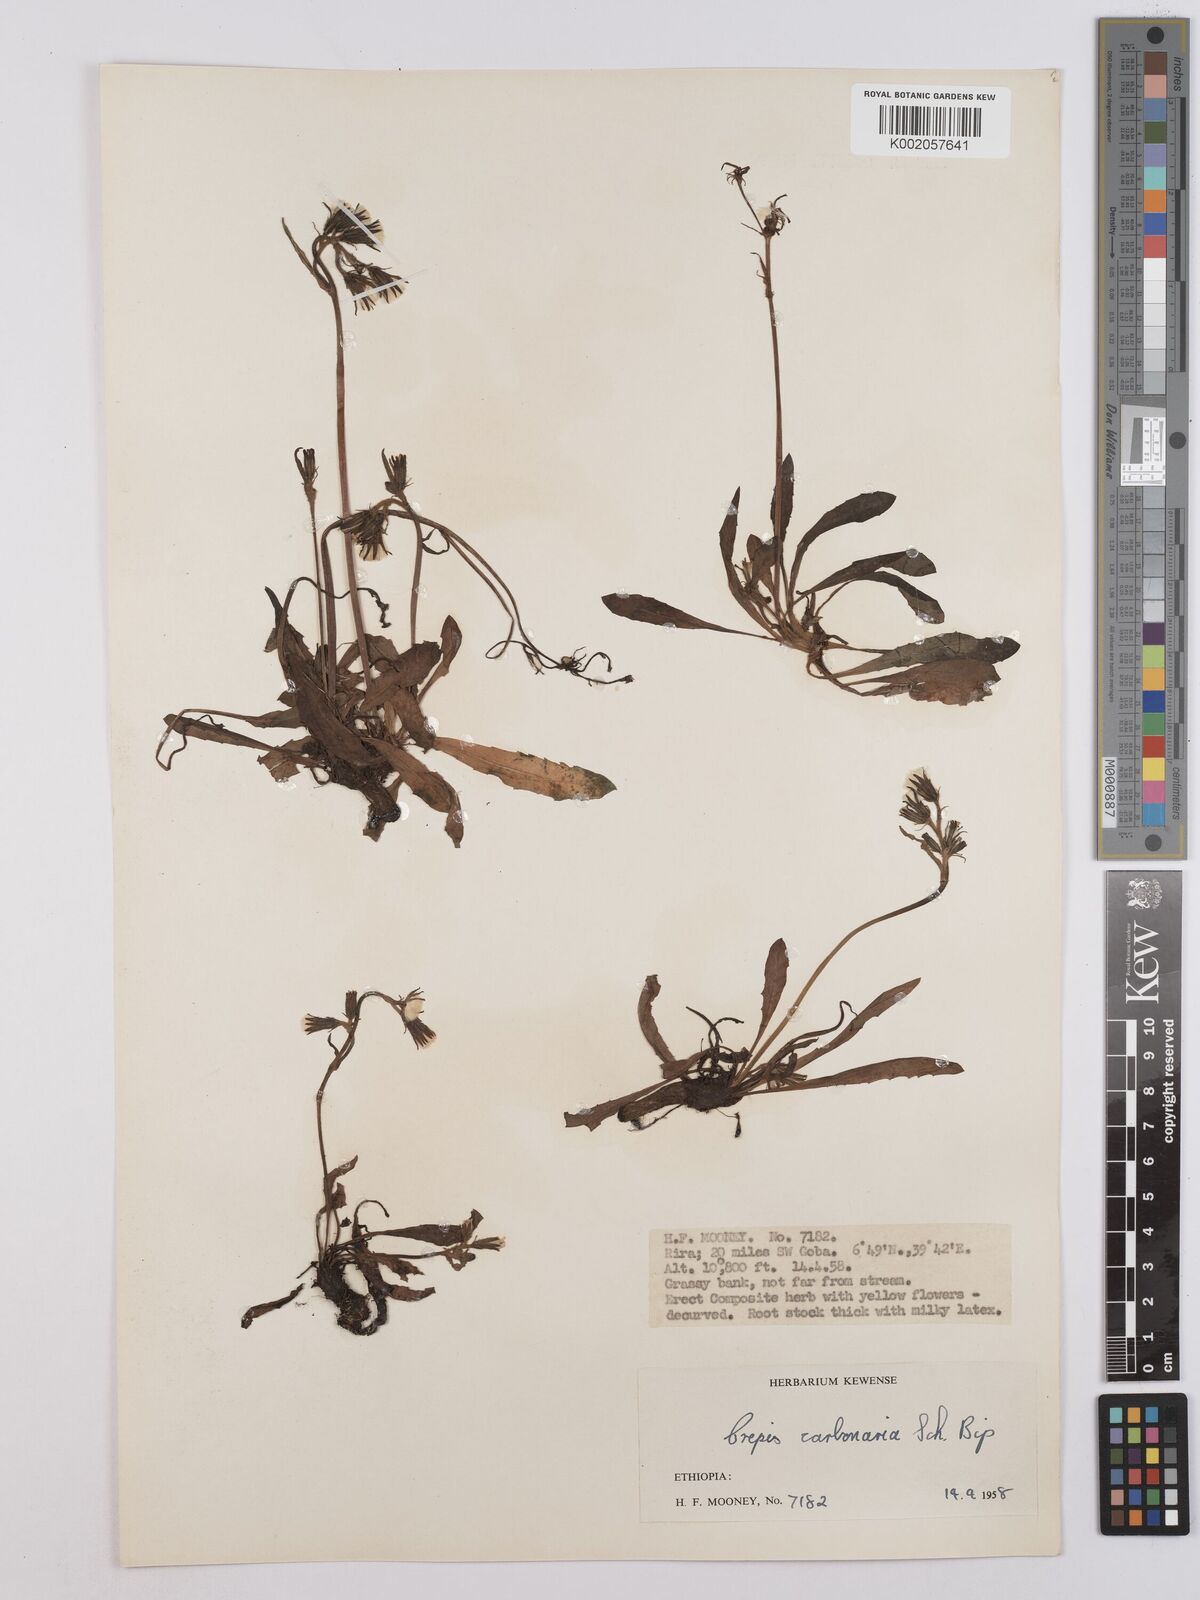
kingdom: Plantae
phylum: Tracheophyta
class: Magnoliopsida
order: Asterales
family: Asteraceae
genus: Crepis
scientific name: Crepis carbonaria
